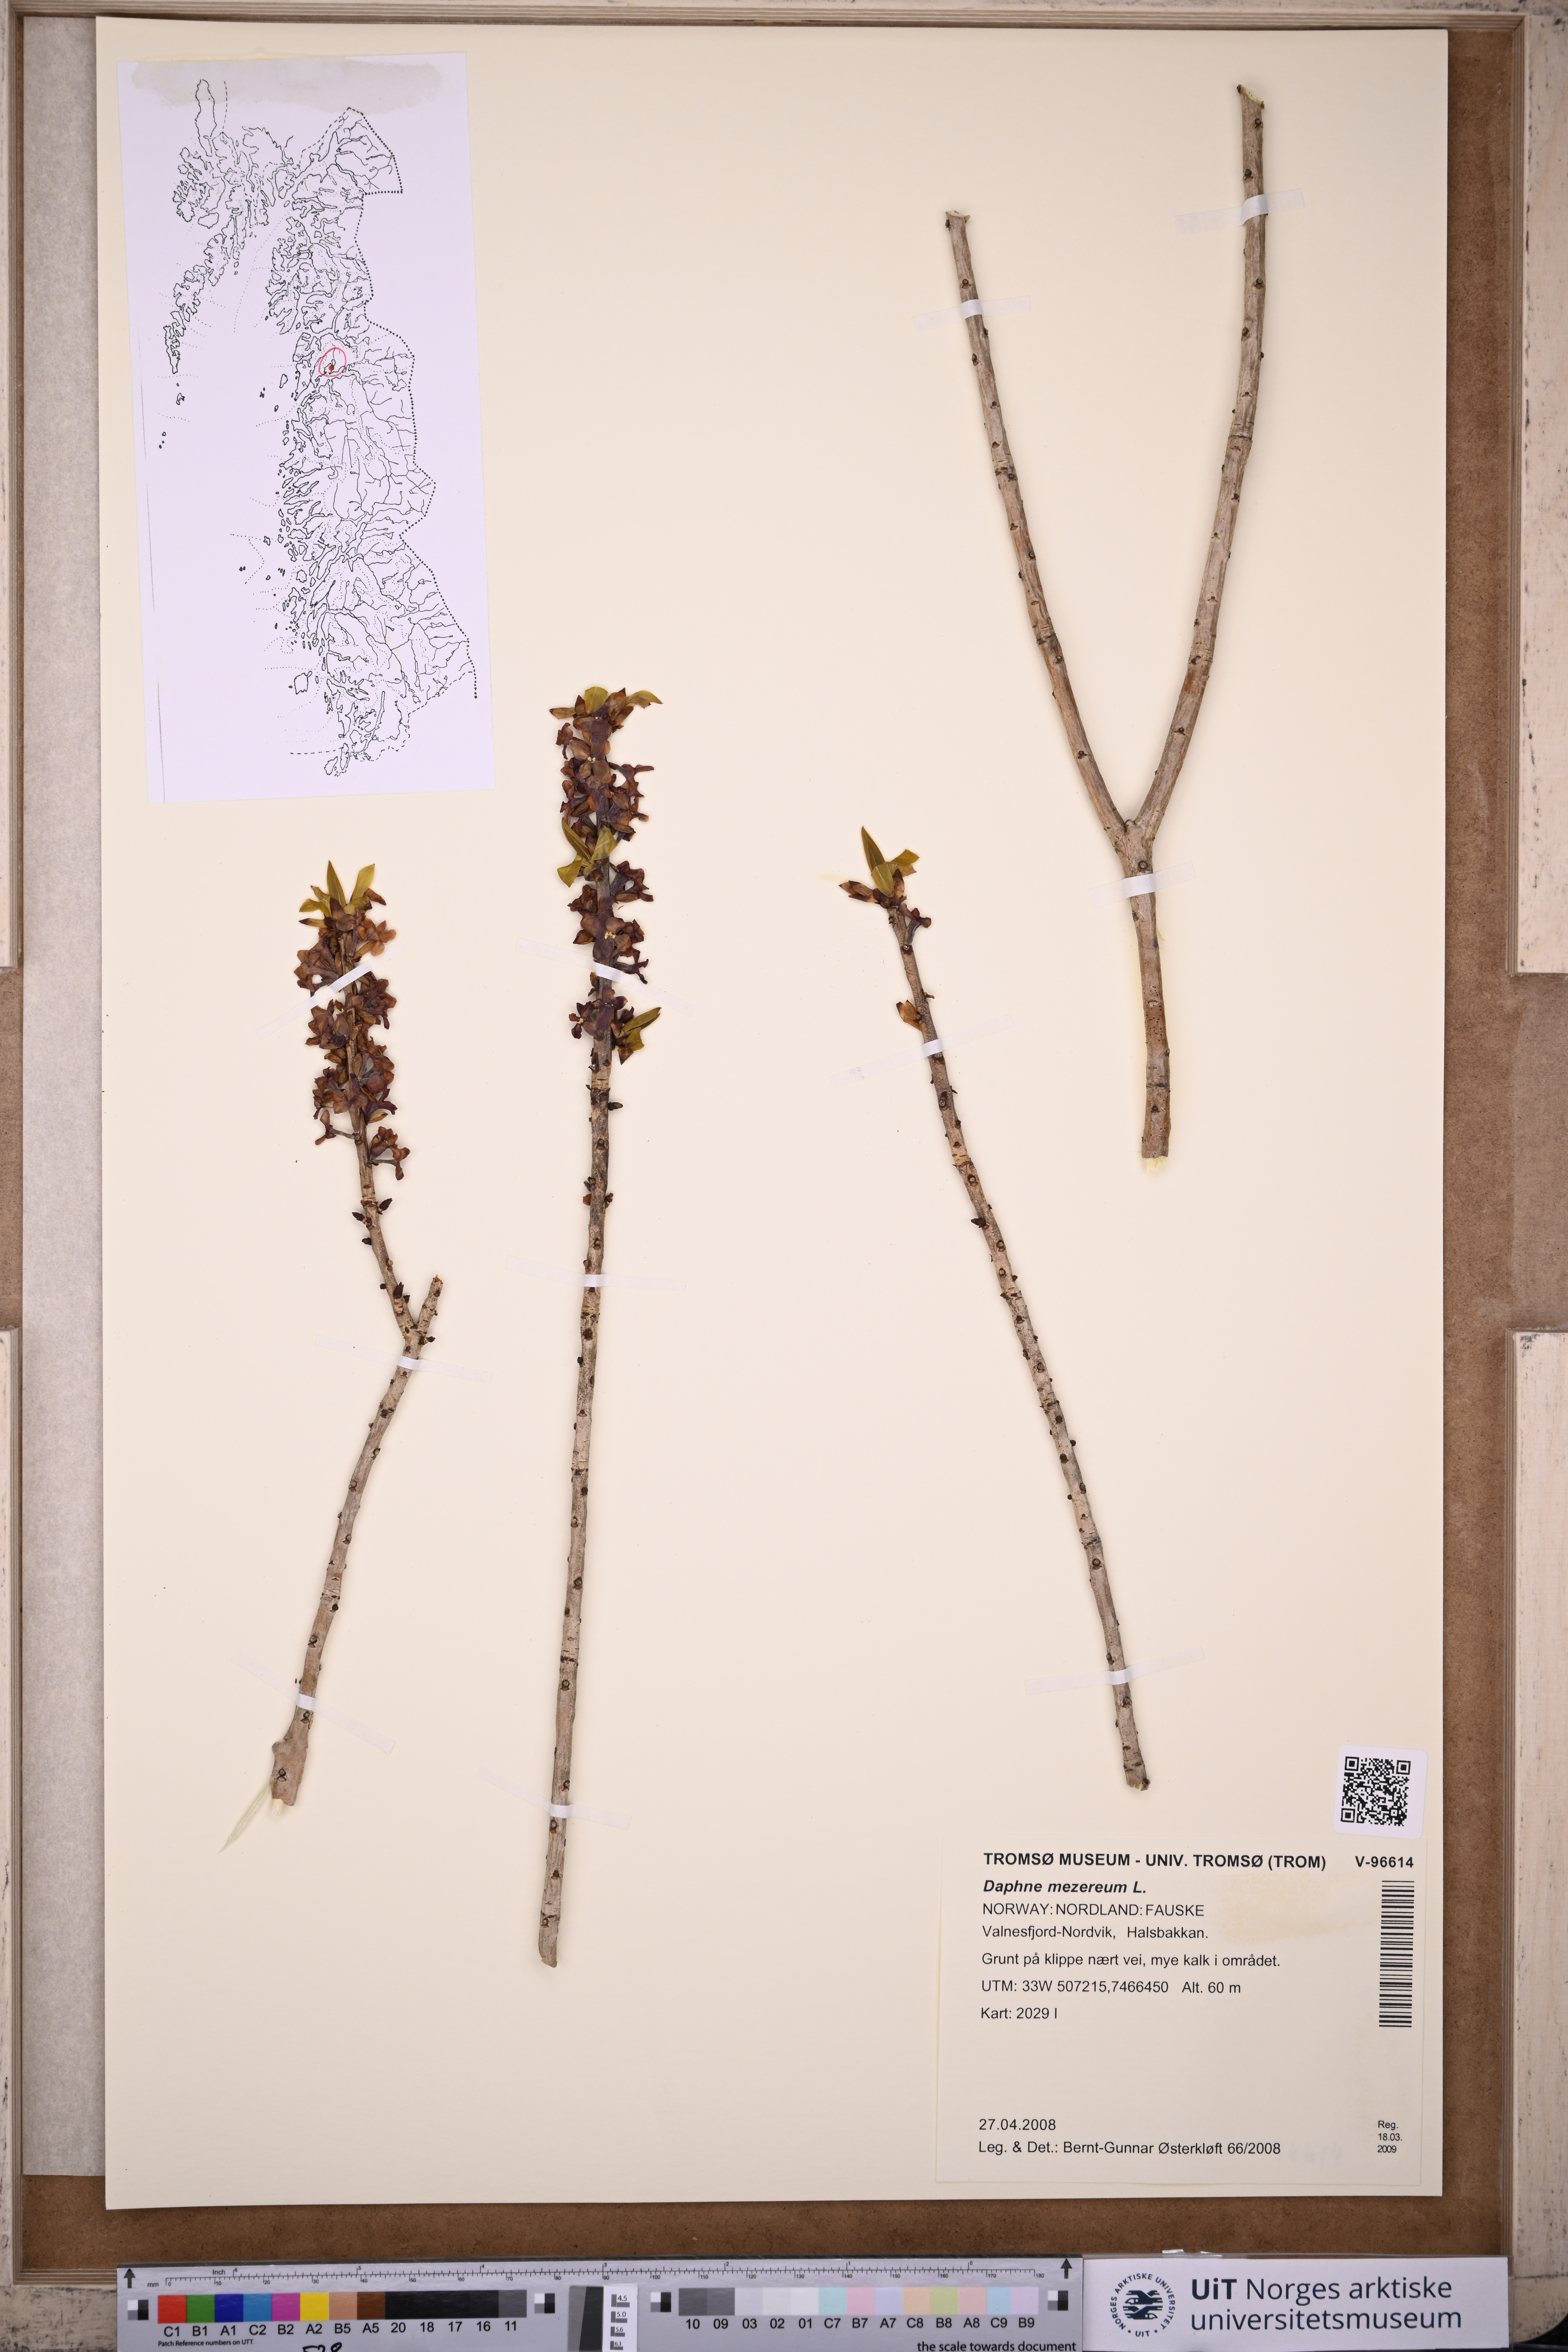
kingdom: Plantae
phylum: Tracheophyta
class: Magnoliopsida
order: Malvales
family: Thymelaeaceae
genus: Daphne
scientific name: Daphne mezereum
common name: Mezereon
